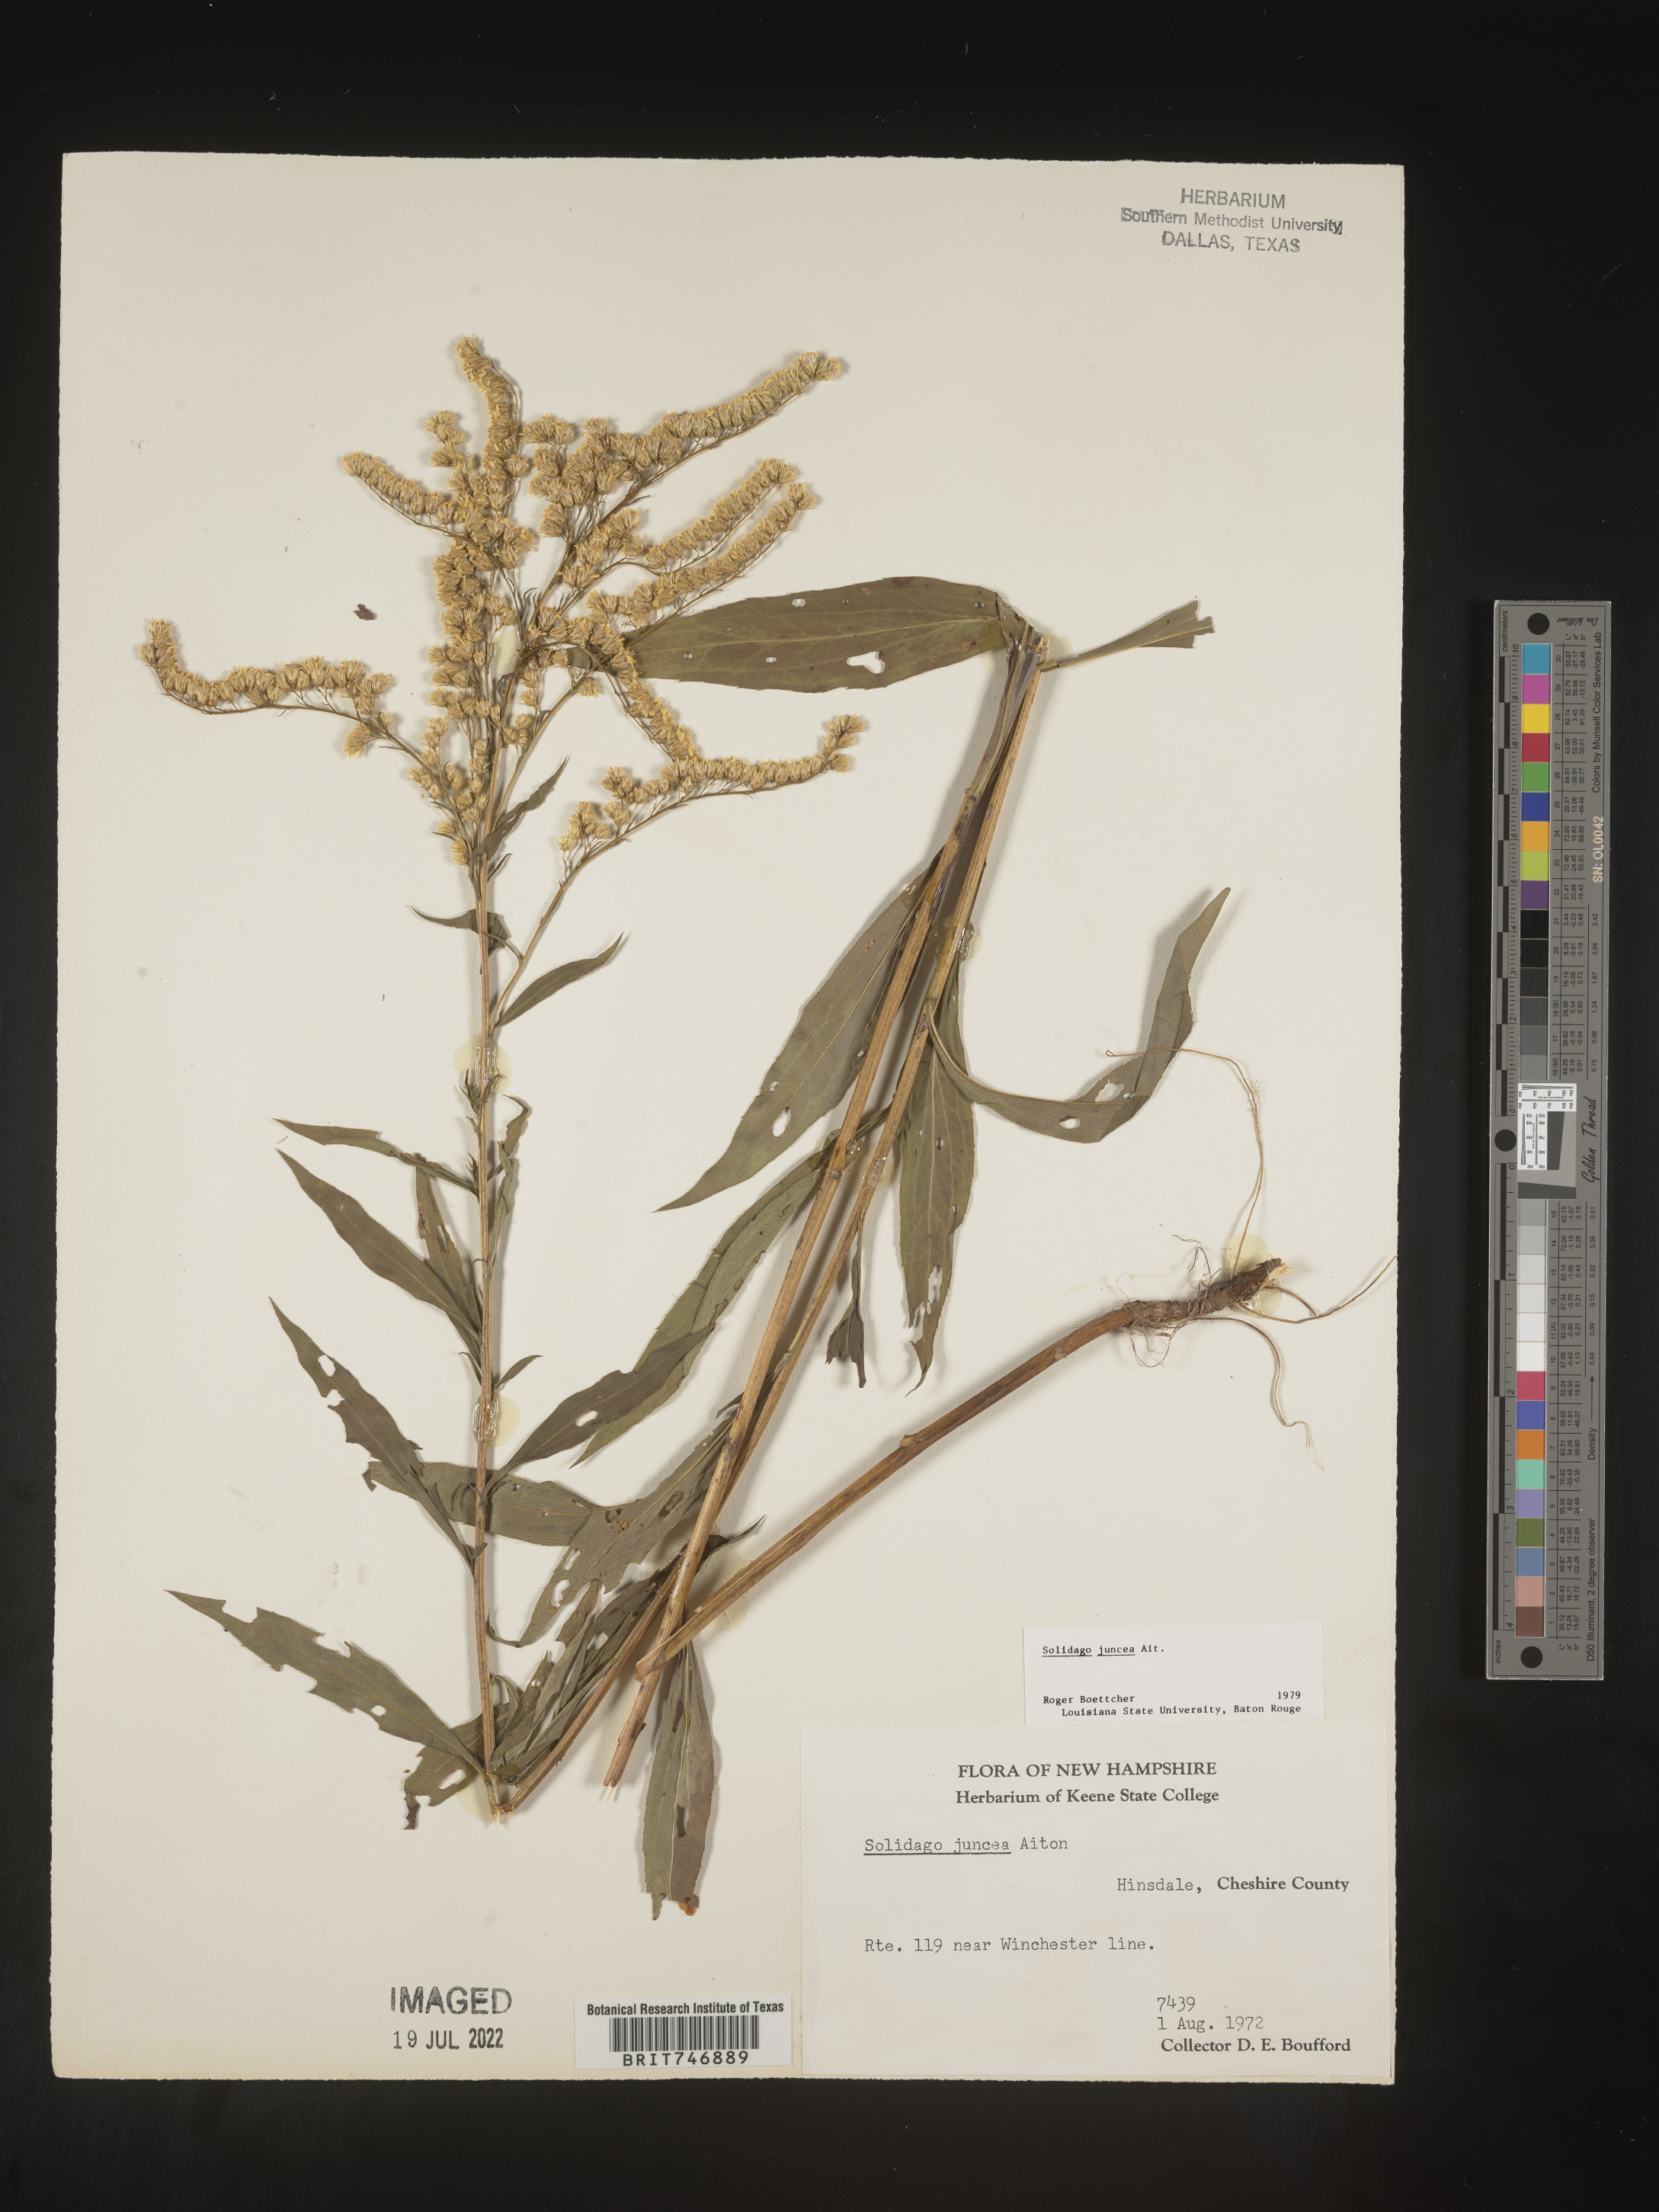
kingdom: Plantae
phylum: Tracheophyta
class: Magnoliopsida
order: Asterales
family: Asteraceae
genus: Solidago
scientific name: Solidago juncea
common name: Early goldenrod
